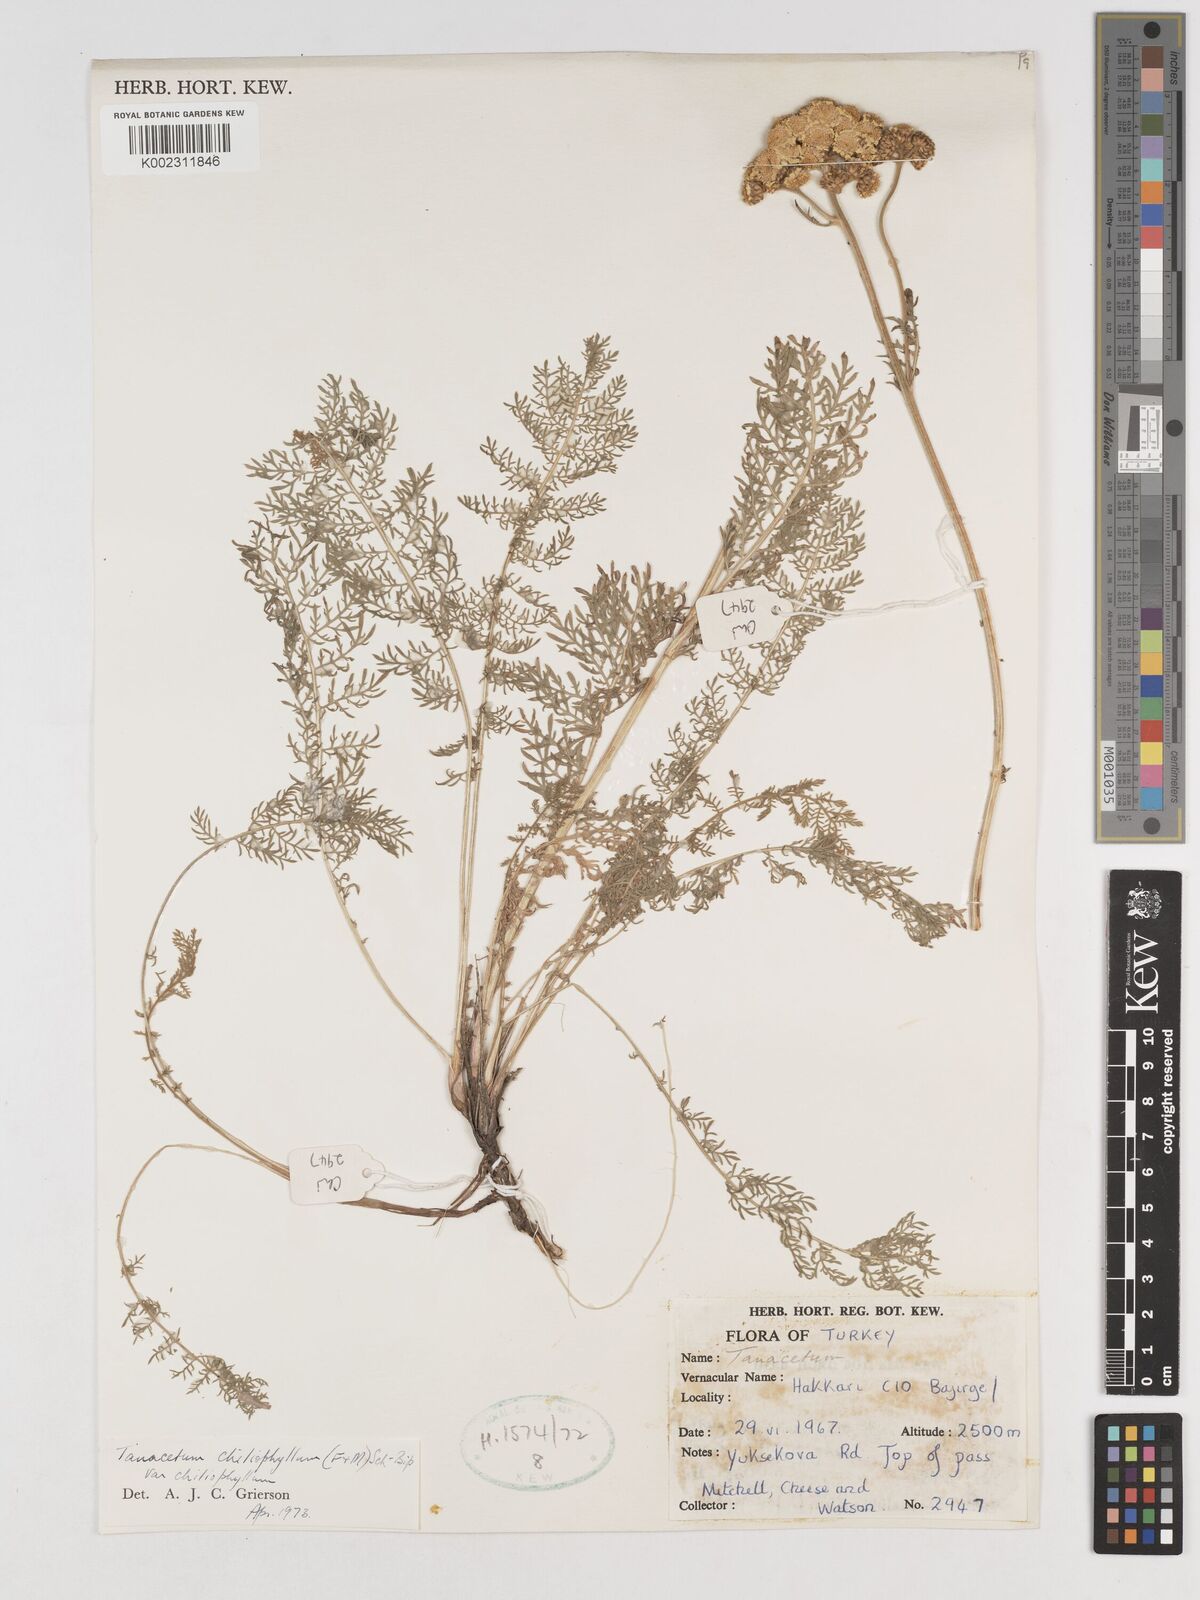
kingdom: Plantae
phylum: Tracheophyta
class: Magnoliopsida
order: Asterales
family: Asteraceae
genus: Tanacetum
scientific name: Tanacetum aureum
